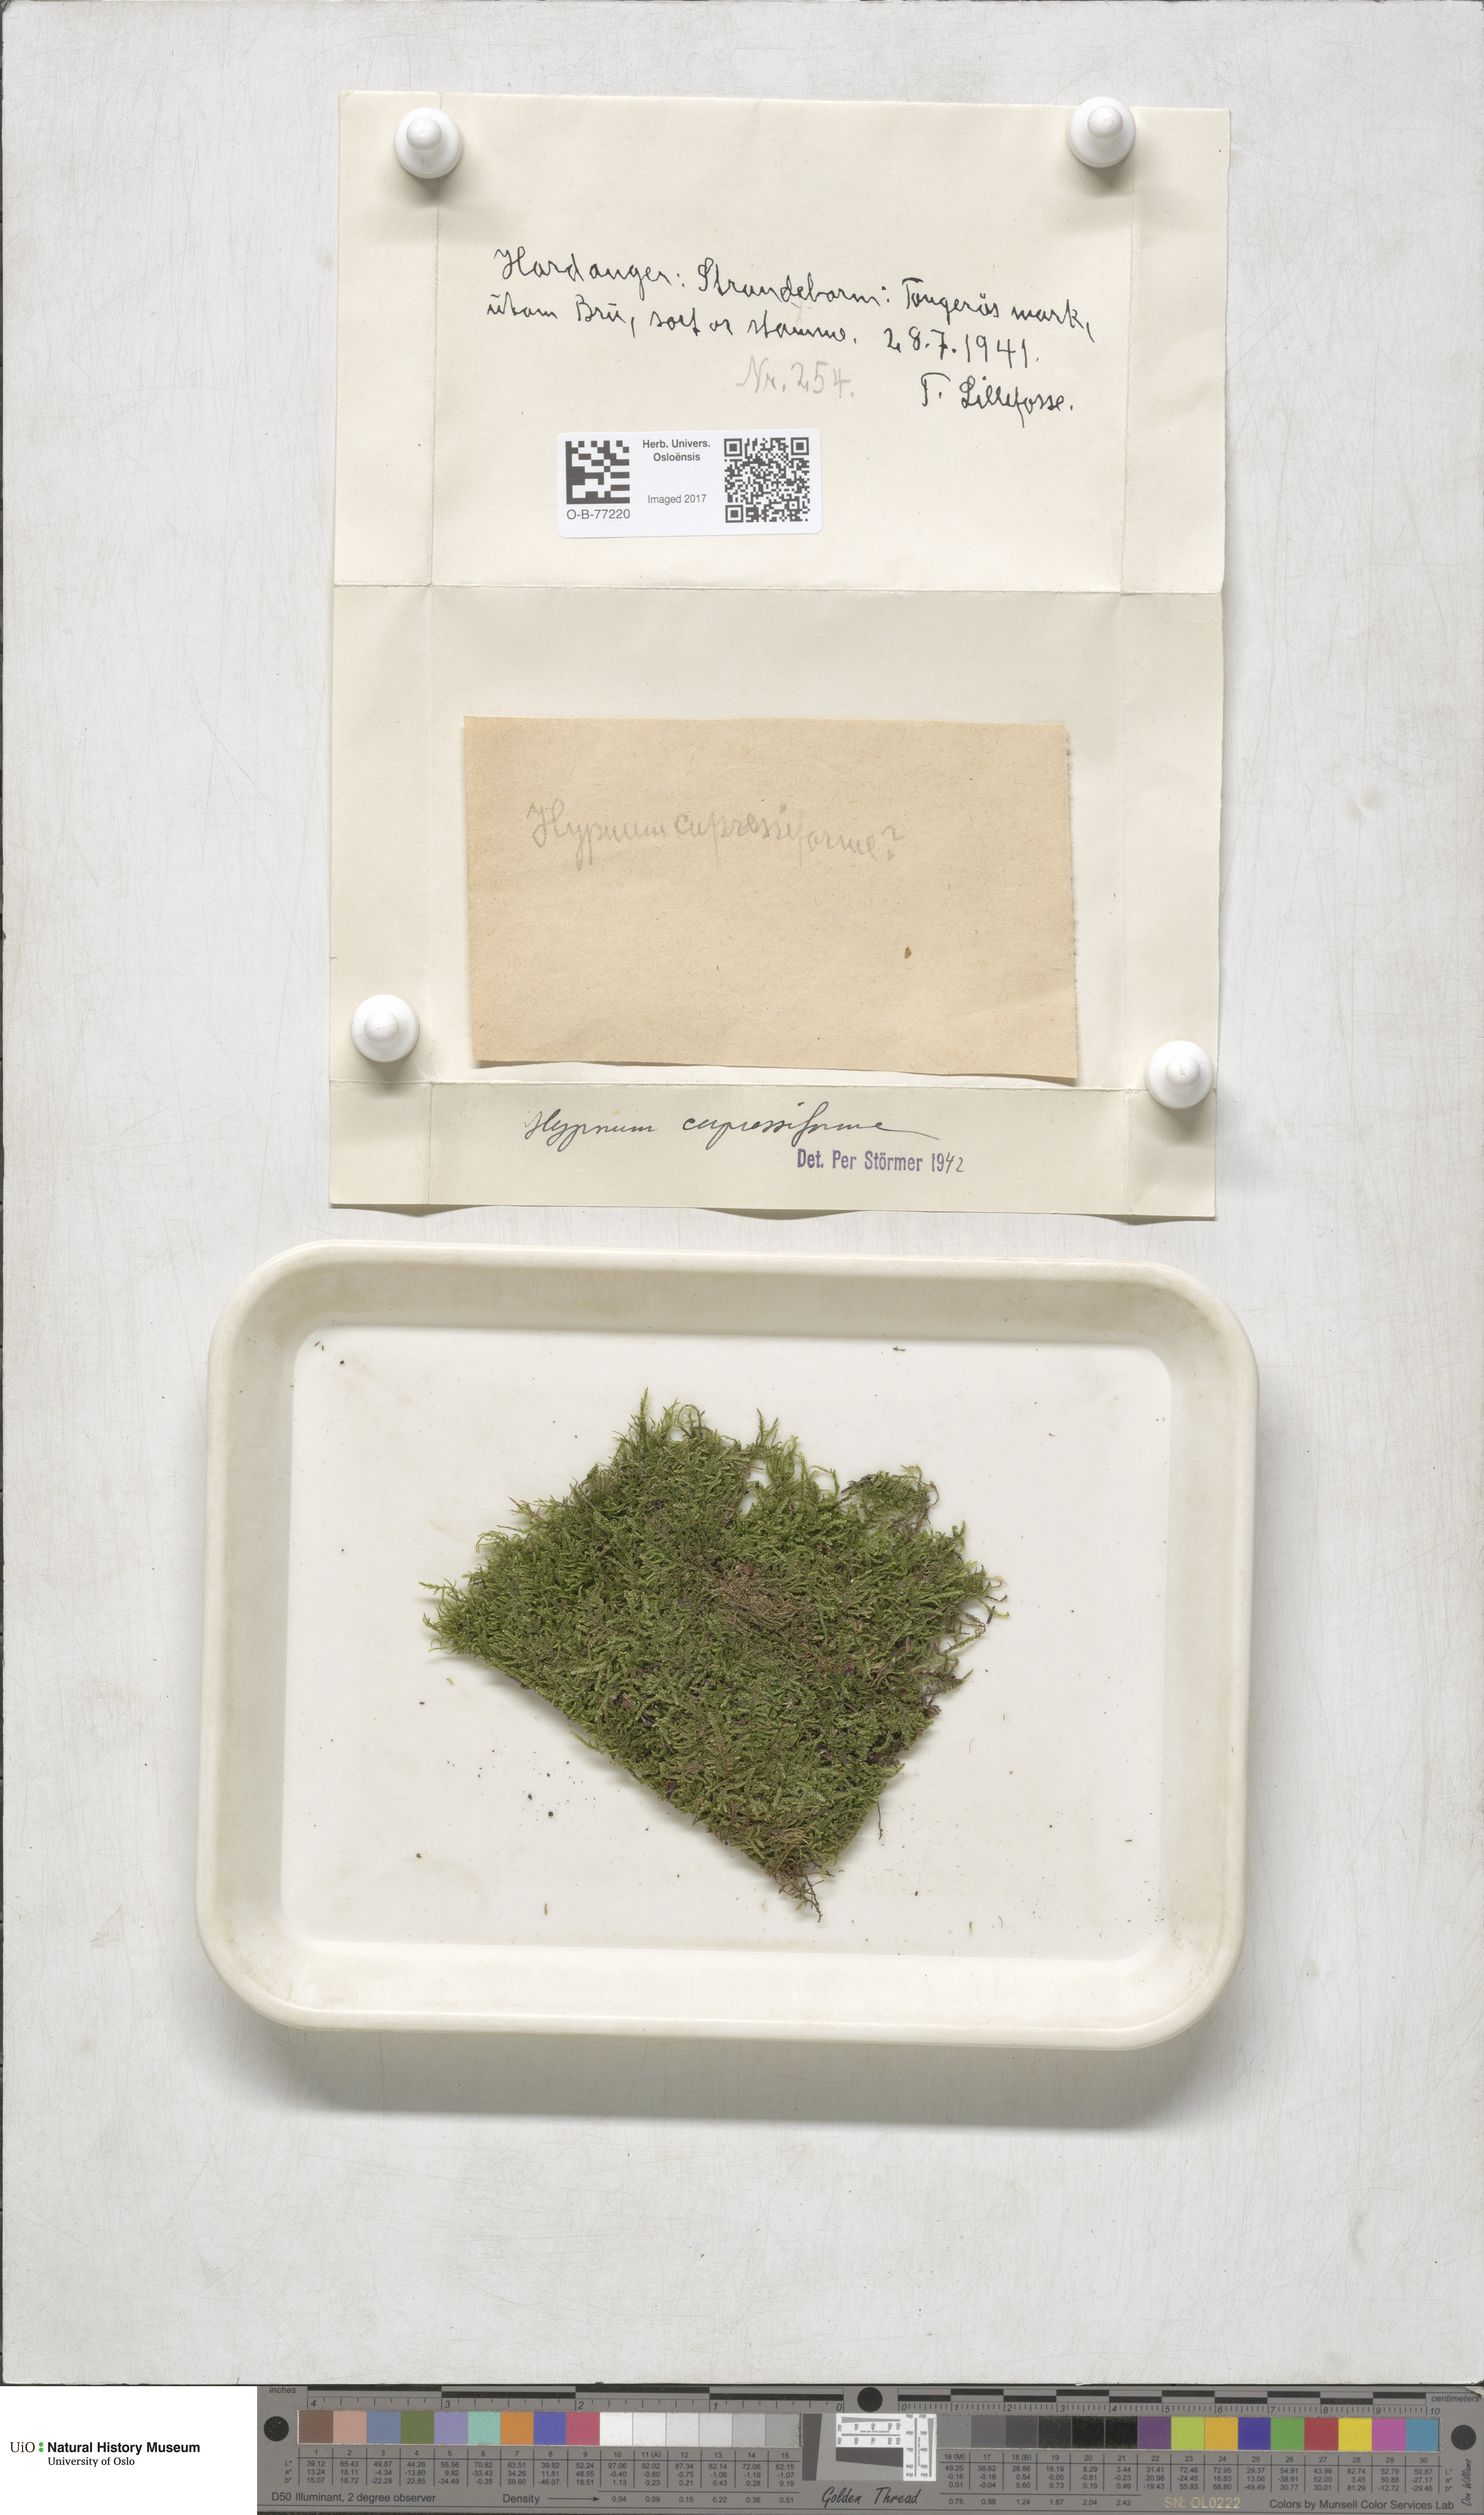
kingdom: Plantae
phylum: Bryophyta
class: Bryopsida
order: Hypnales
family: Hypnaceae
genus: Hypnum
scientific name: Hypnum cupressiforme
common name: Cypress-leaved plait-moss
